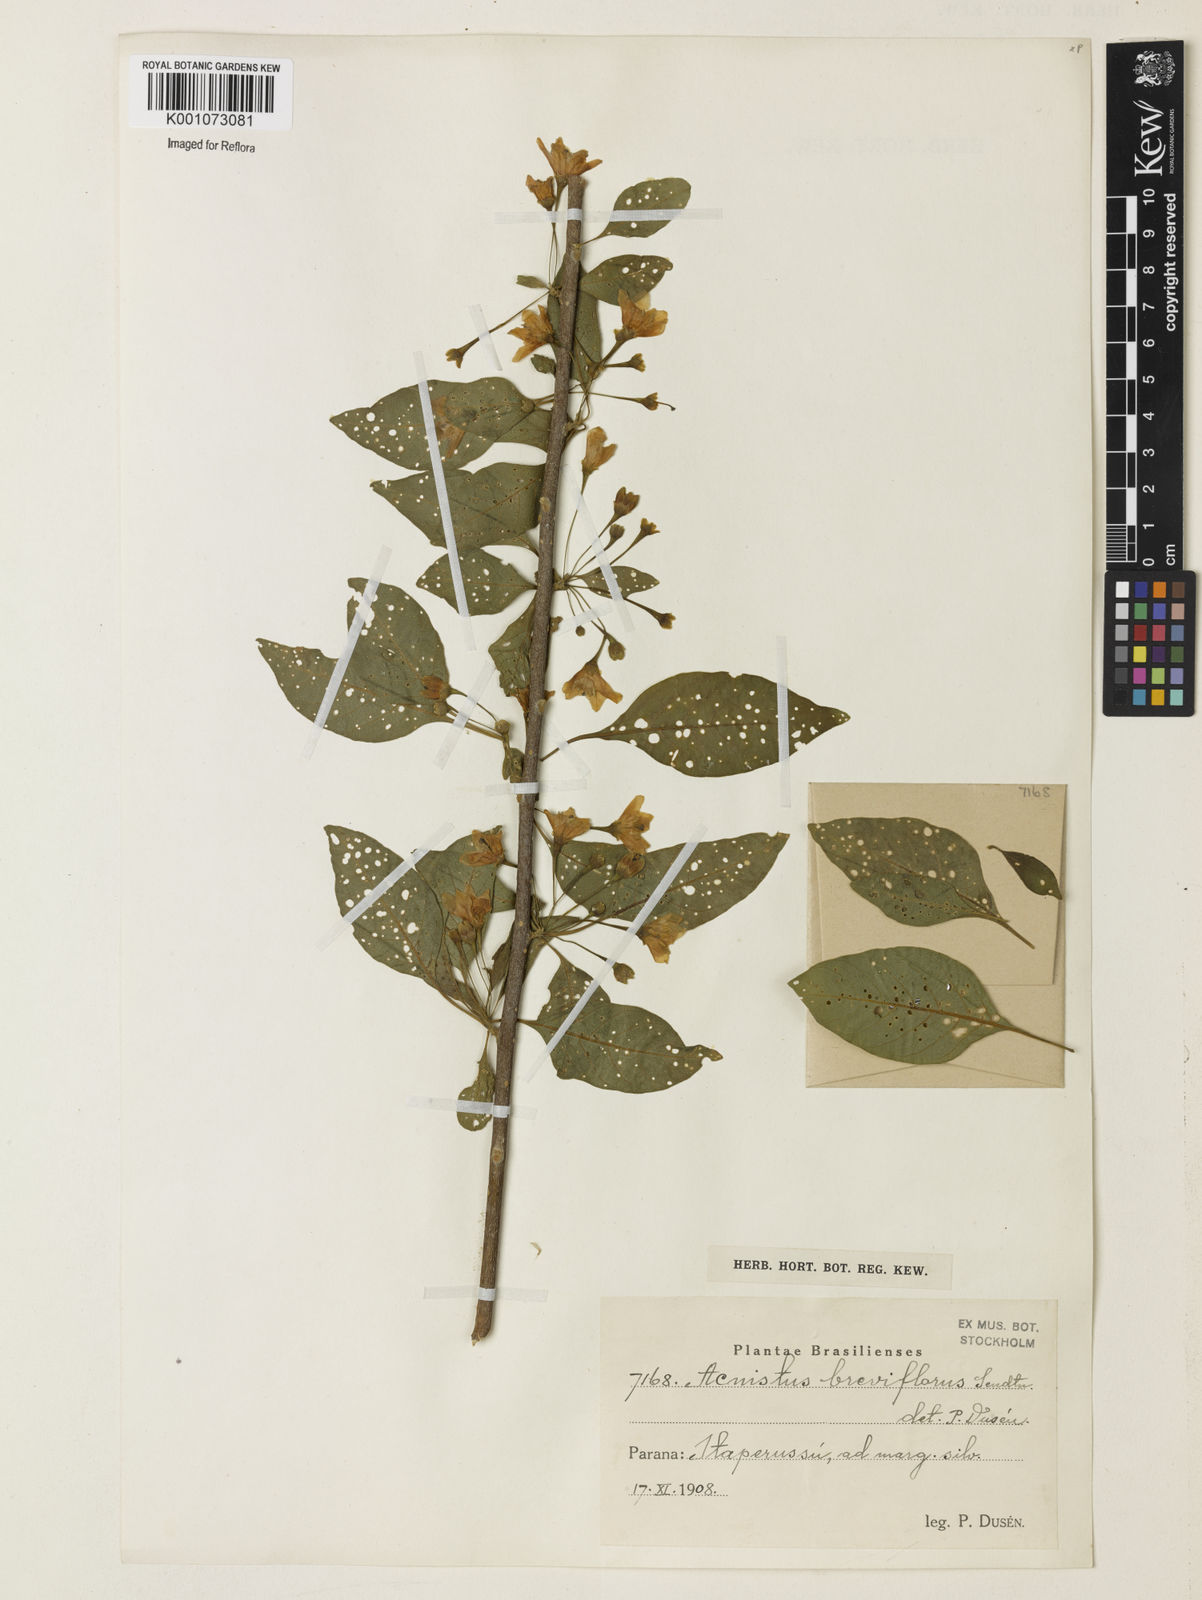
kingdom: Plantae
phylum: Tracheophyta
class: Magnoliopsida
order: Solanales
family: Solanaceae
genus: Vassobia
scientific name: Vassobia breviflora
